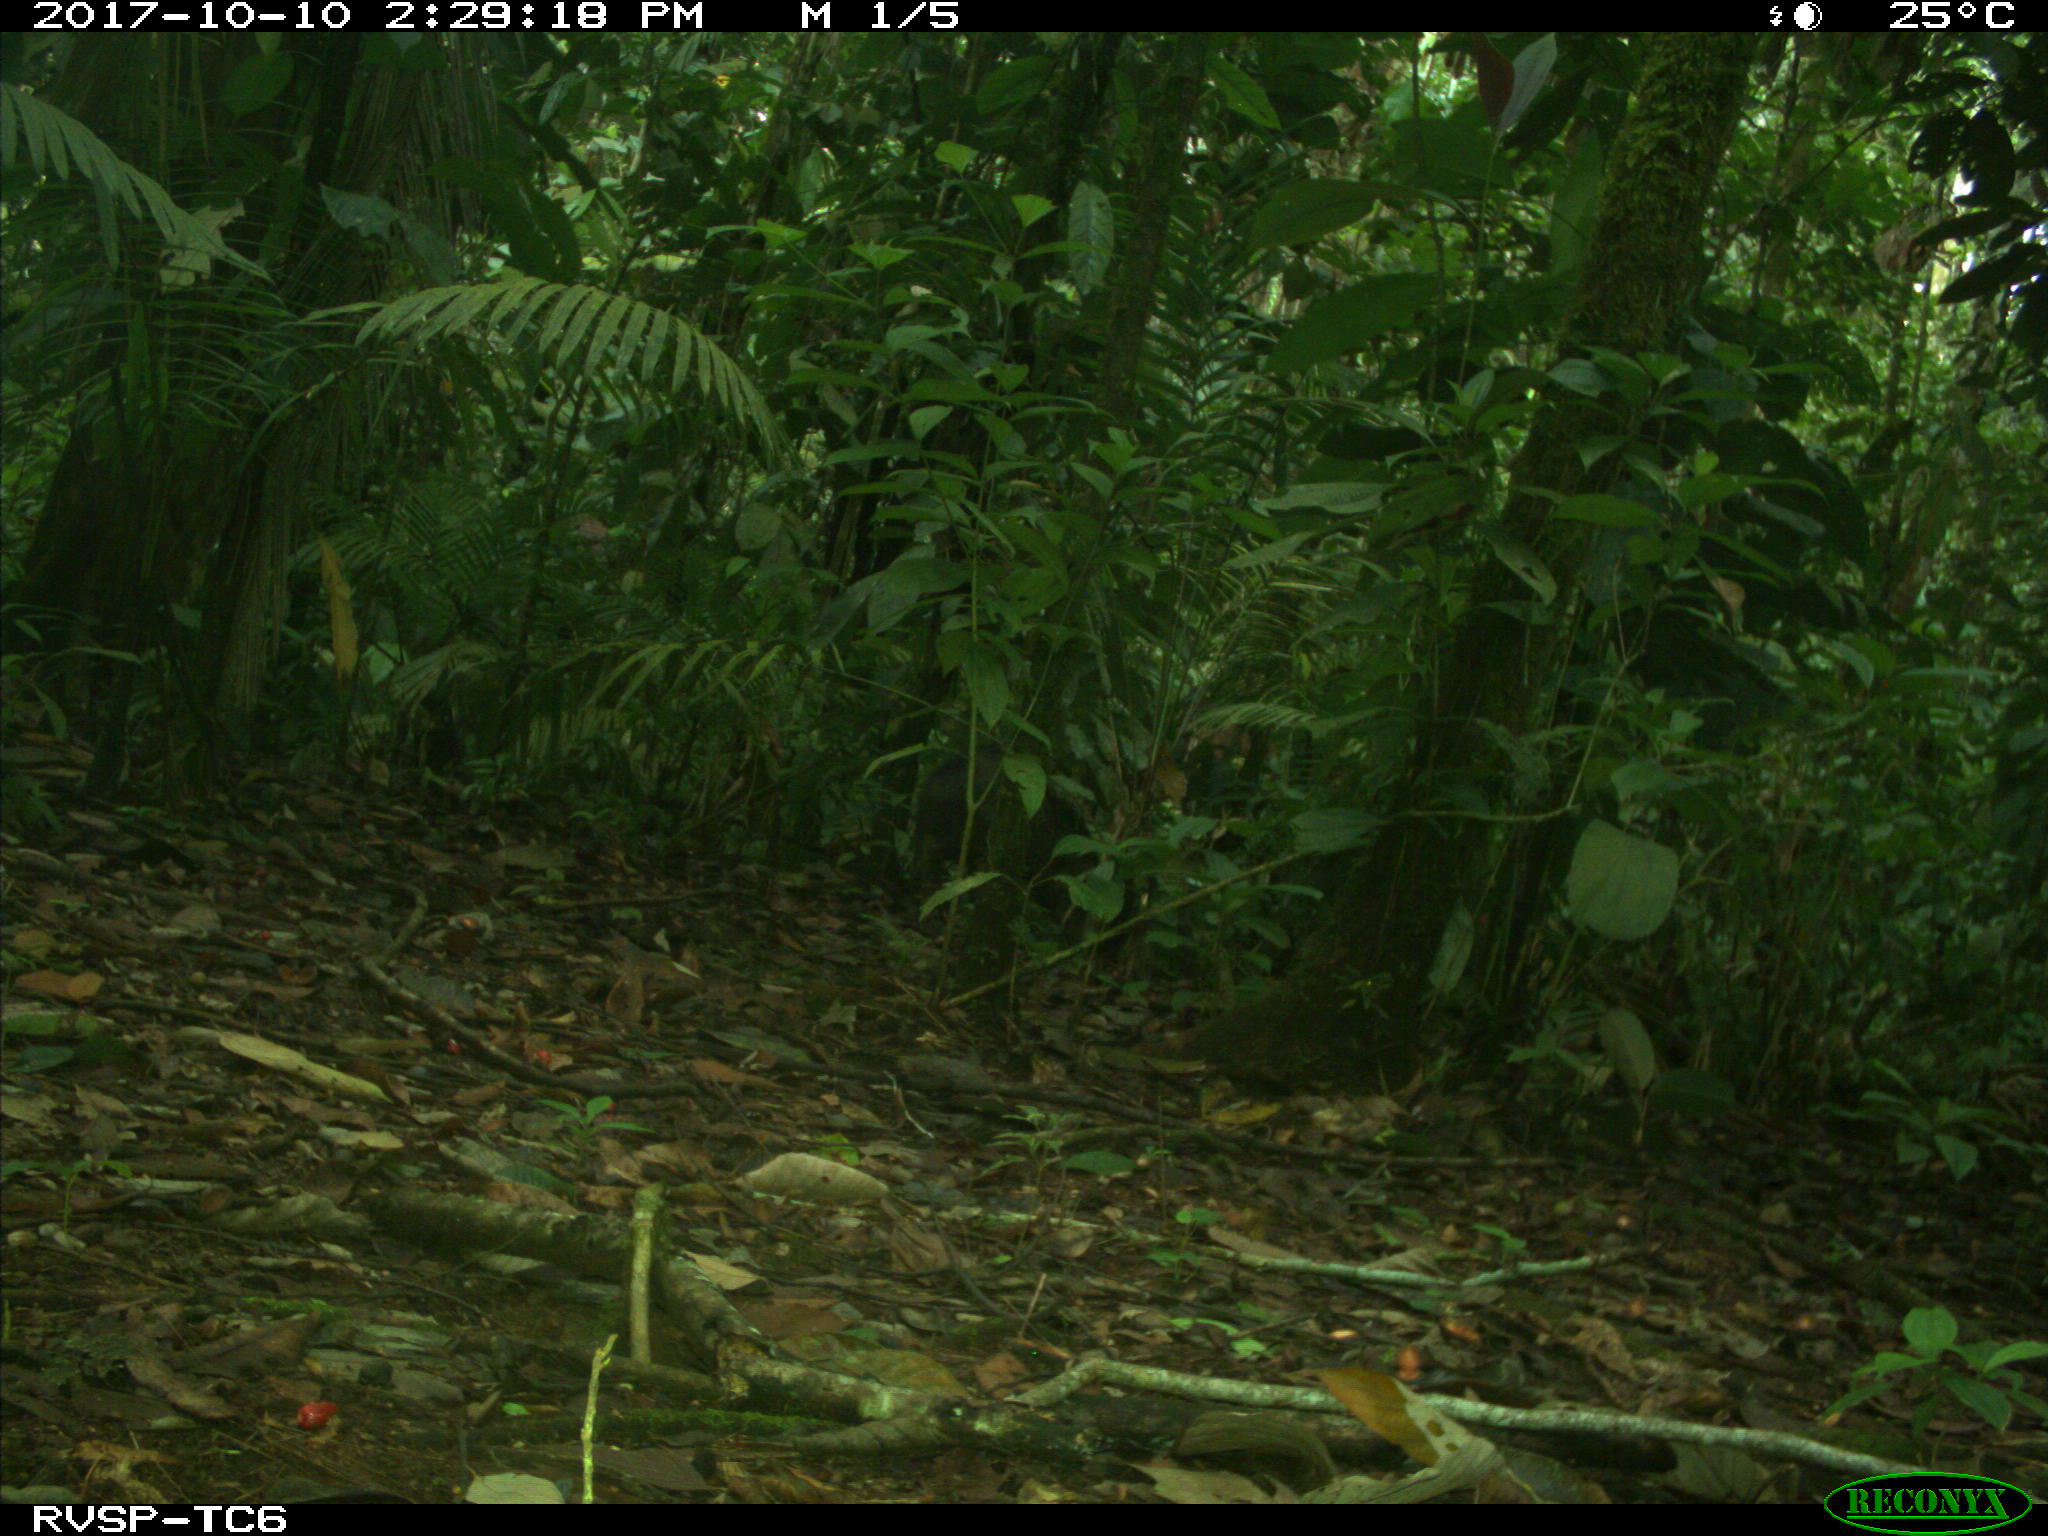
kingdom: Animalia
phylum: Chordata
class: Mammalia
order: Artiodactyla
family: Tayassuidae
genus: Tayassu
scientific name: Tayassu pecari
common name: White-lipped peccary
